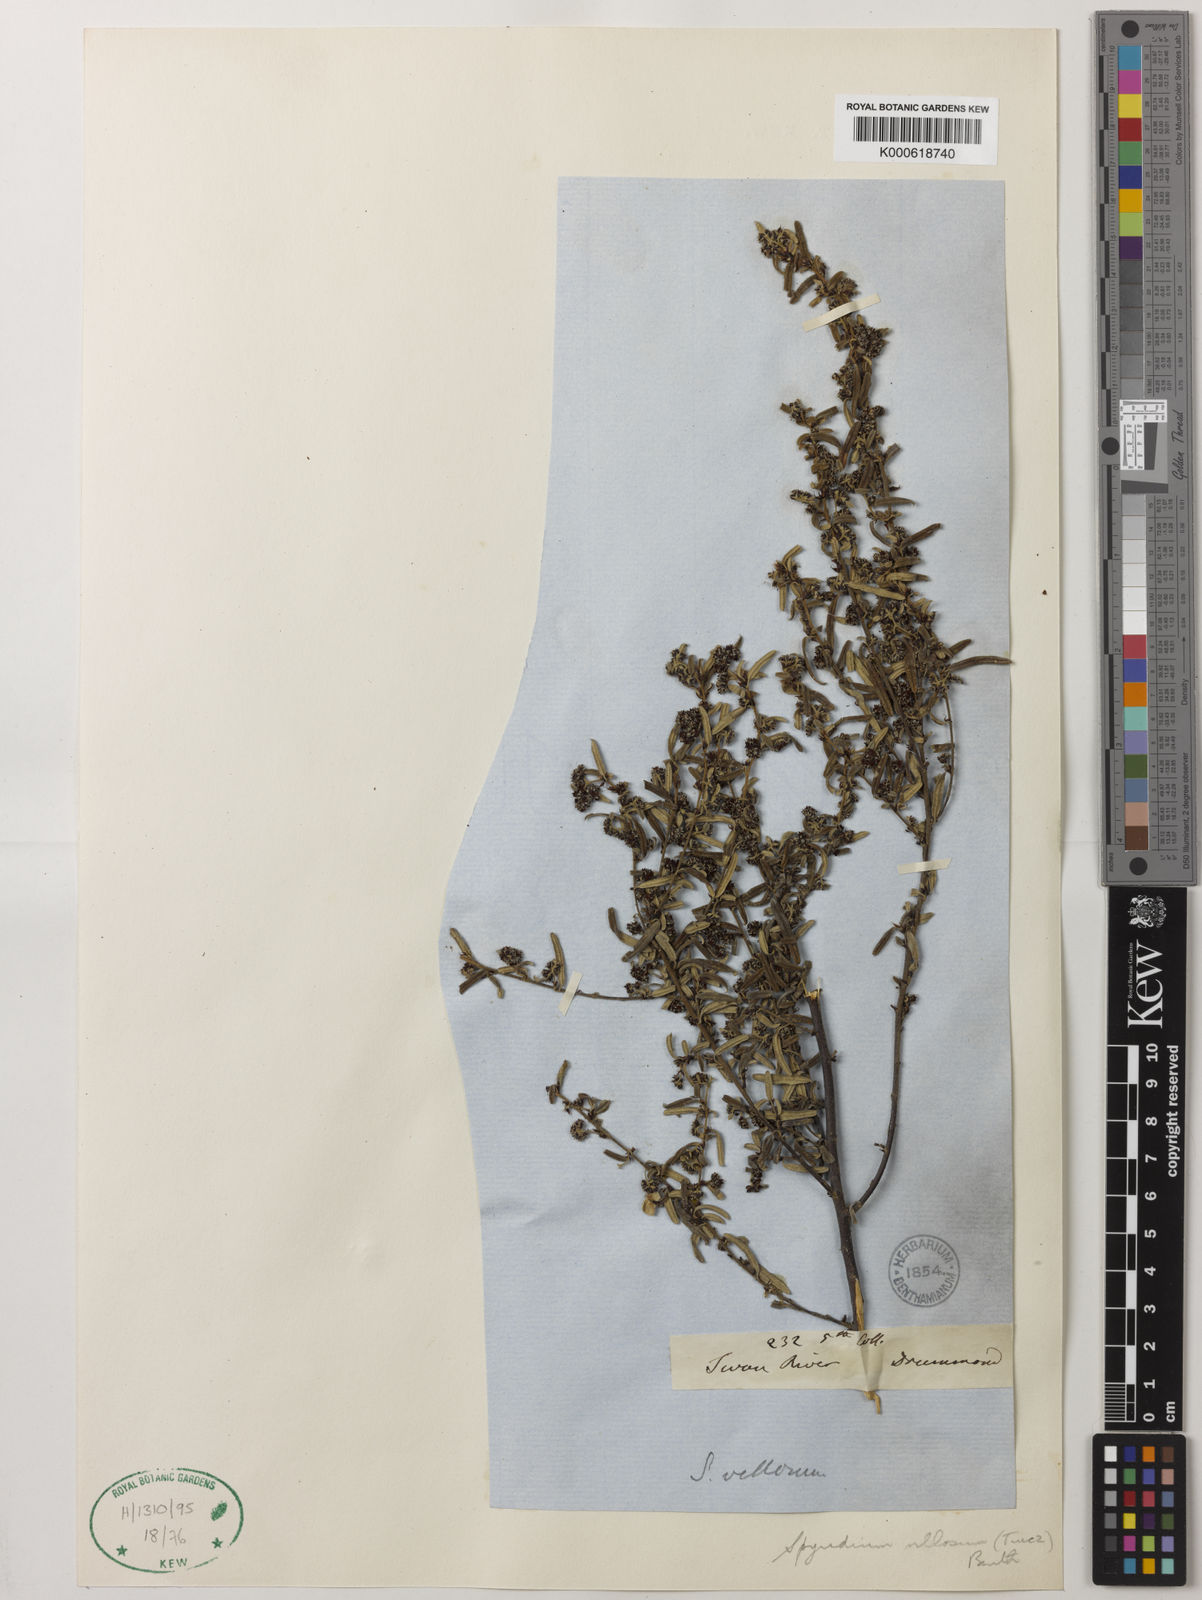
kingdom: Plantae
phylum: Tracheophyta
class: Magnoliopsida
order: Rosales
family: Rhamnaceae
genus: Spyridium
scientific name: Spyridium villosum
